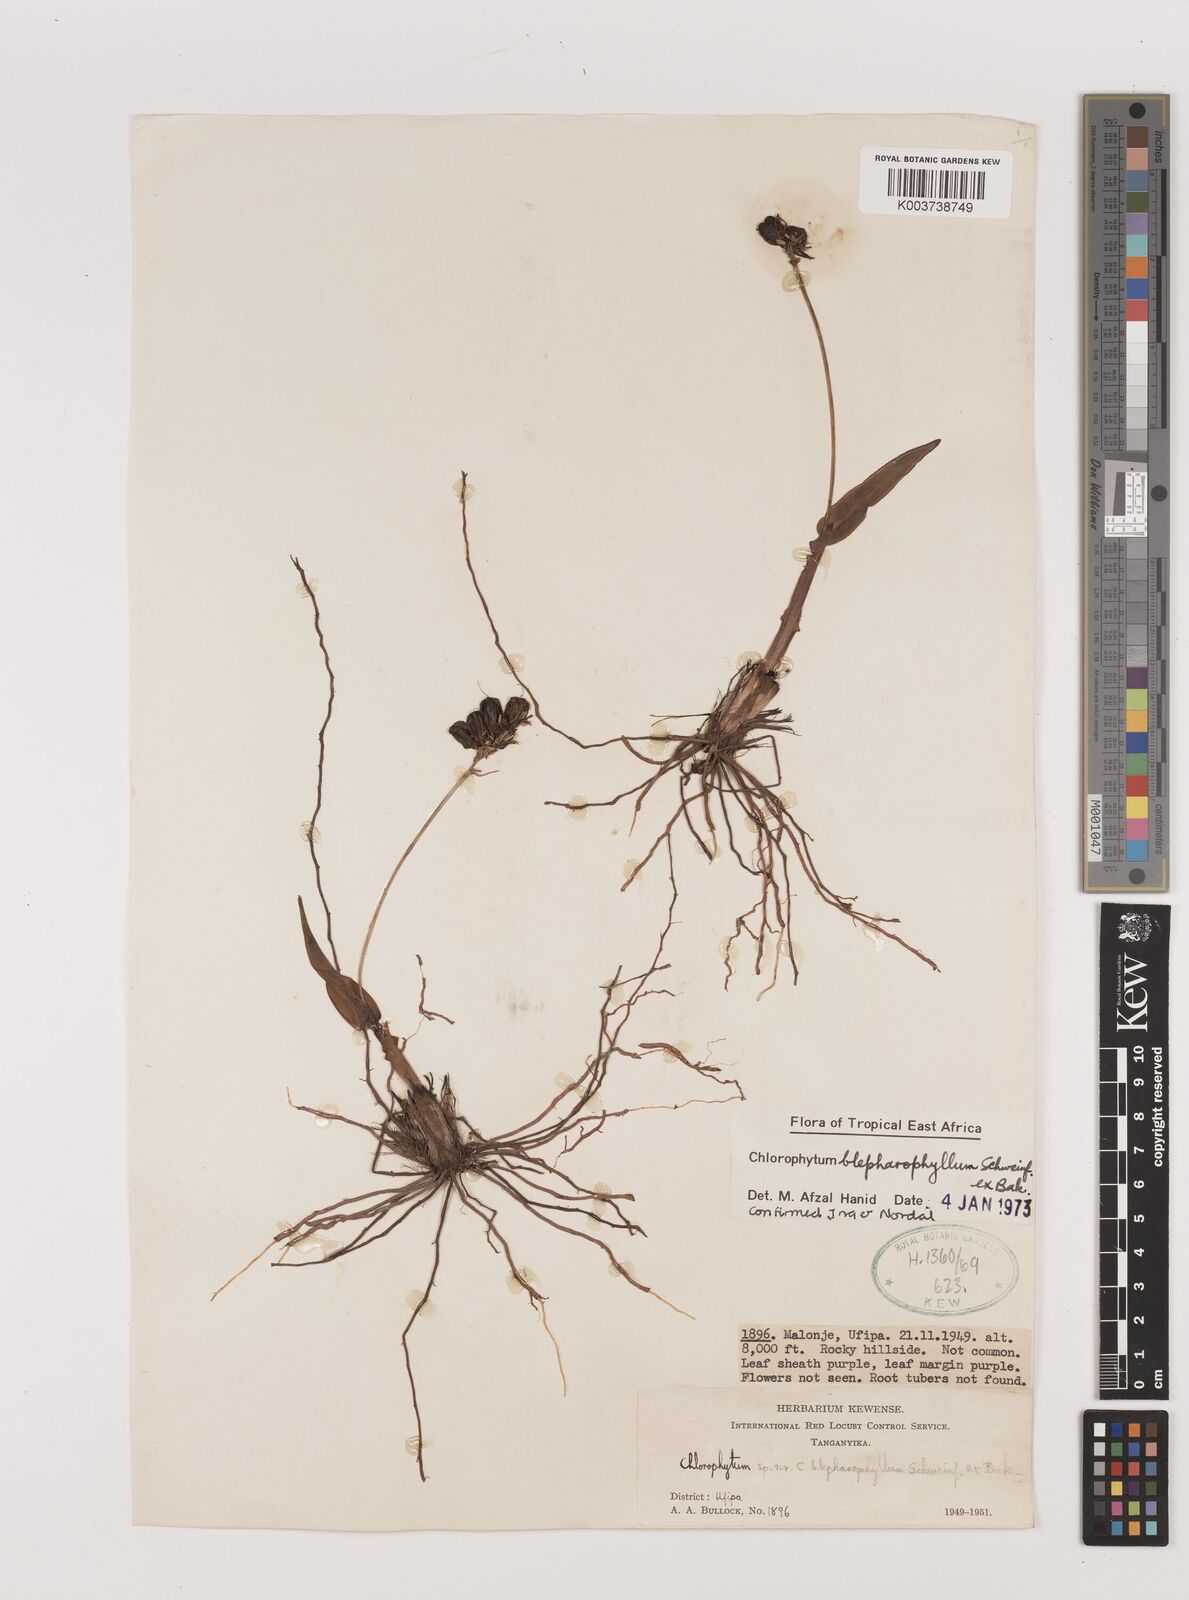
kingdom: Plantae
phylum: Tracheophyta
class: Liliopsida
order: Asparagales
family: Asparagaceae
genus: Chlorophytum
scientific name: Chlorophytum blepharophyllum
